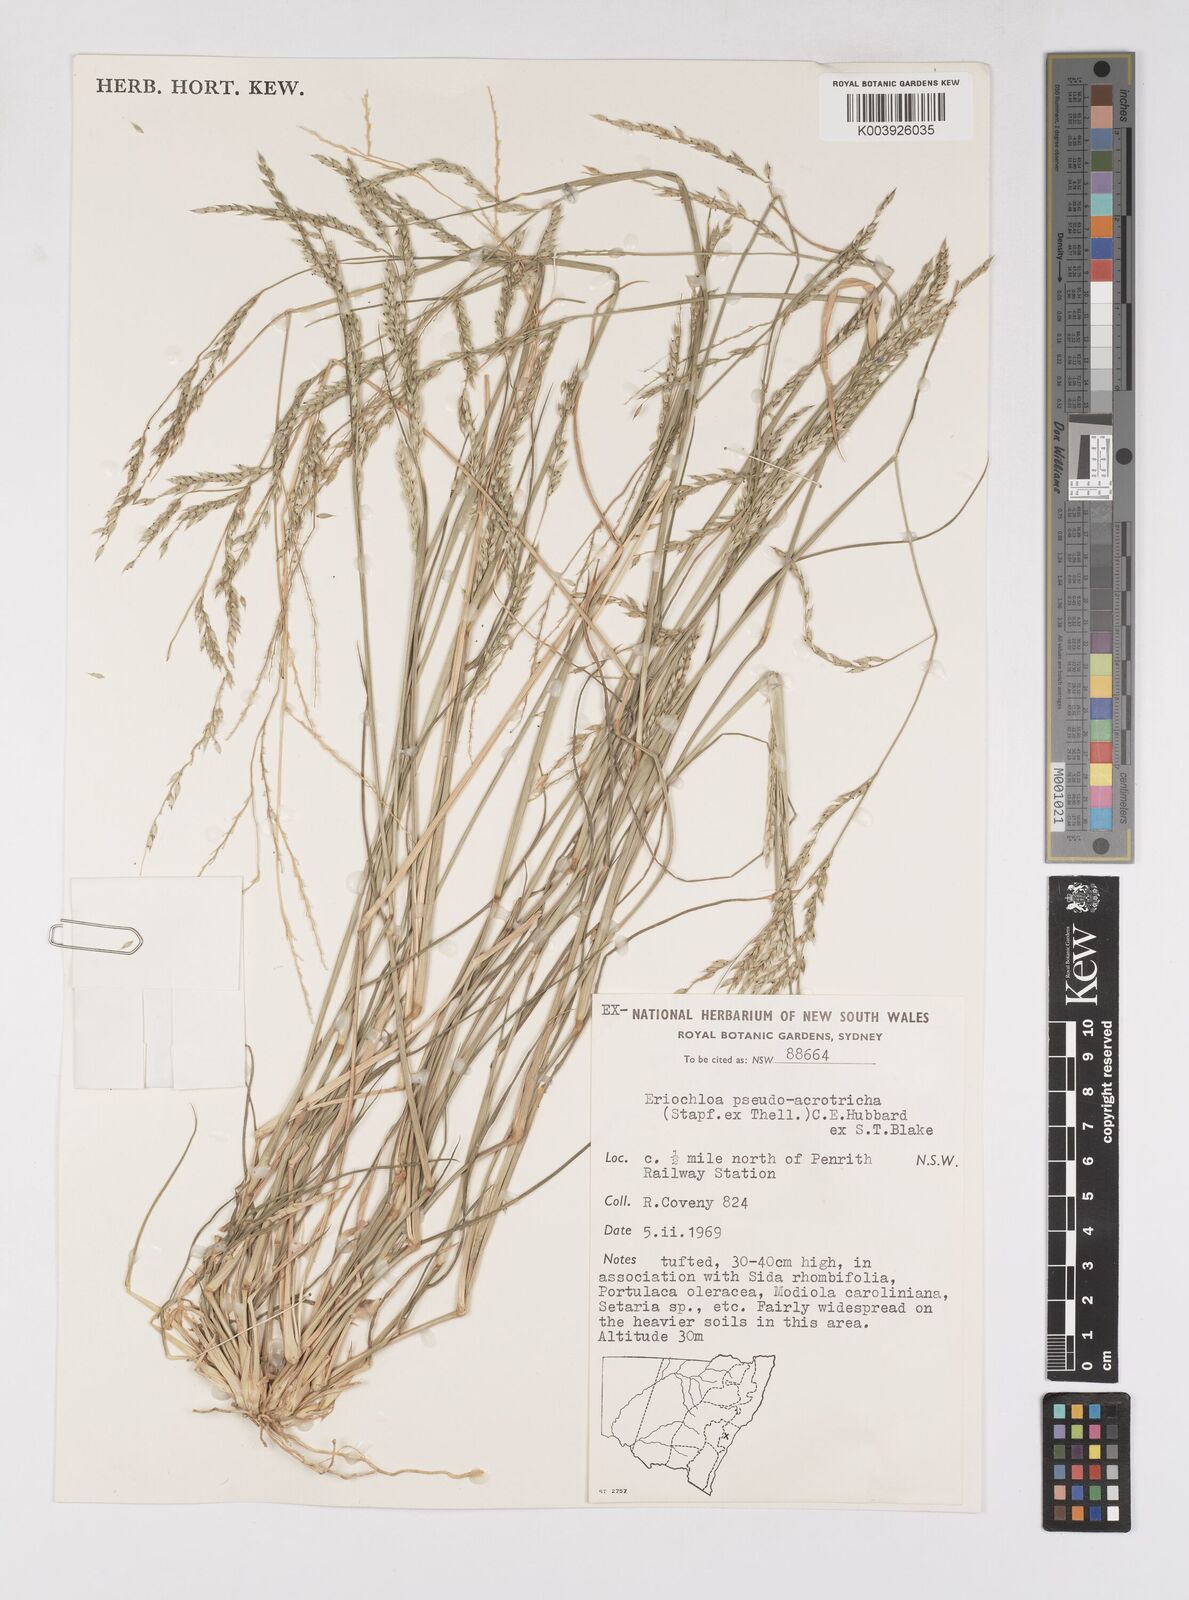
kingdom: Plantae
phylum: Tracheophyta
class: Liliopsida
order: Poales
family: Poaceae
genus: Eriochloa
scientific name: Eriochloa pseudoacrotricha
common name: Perennial cup-grass
